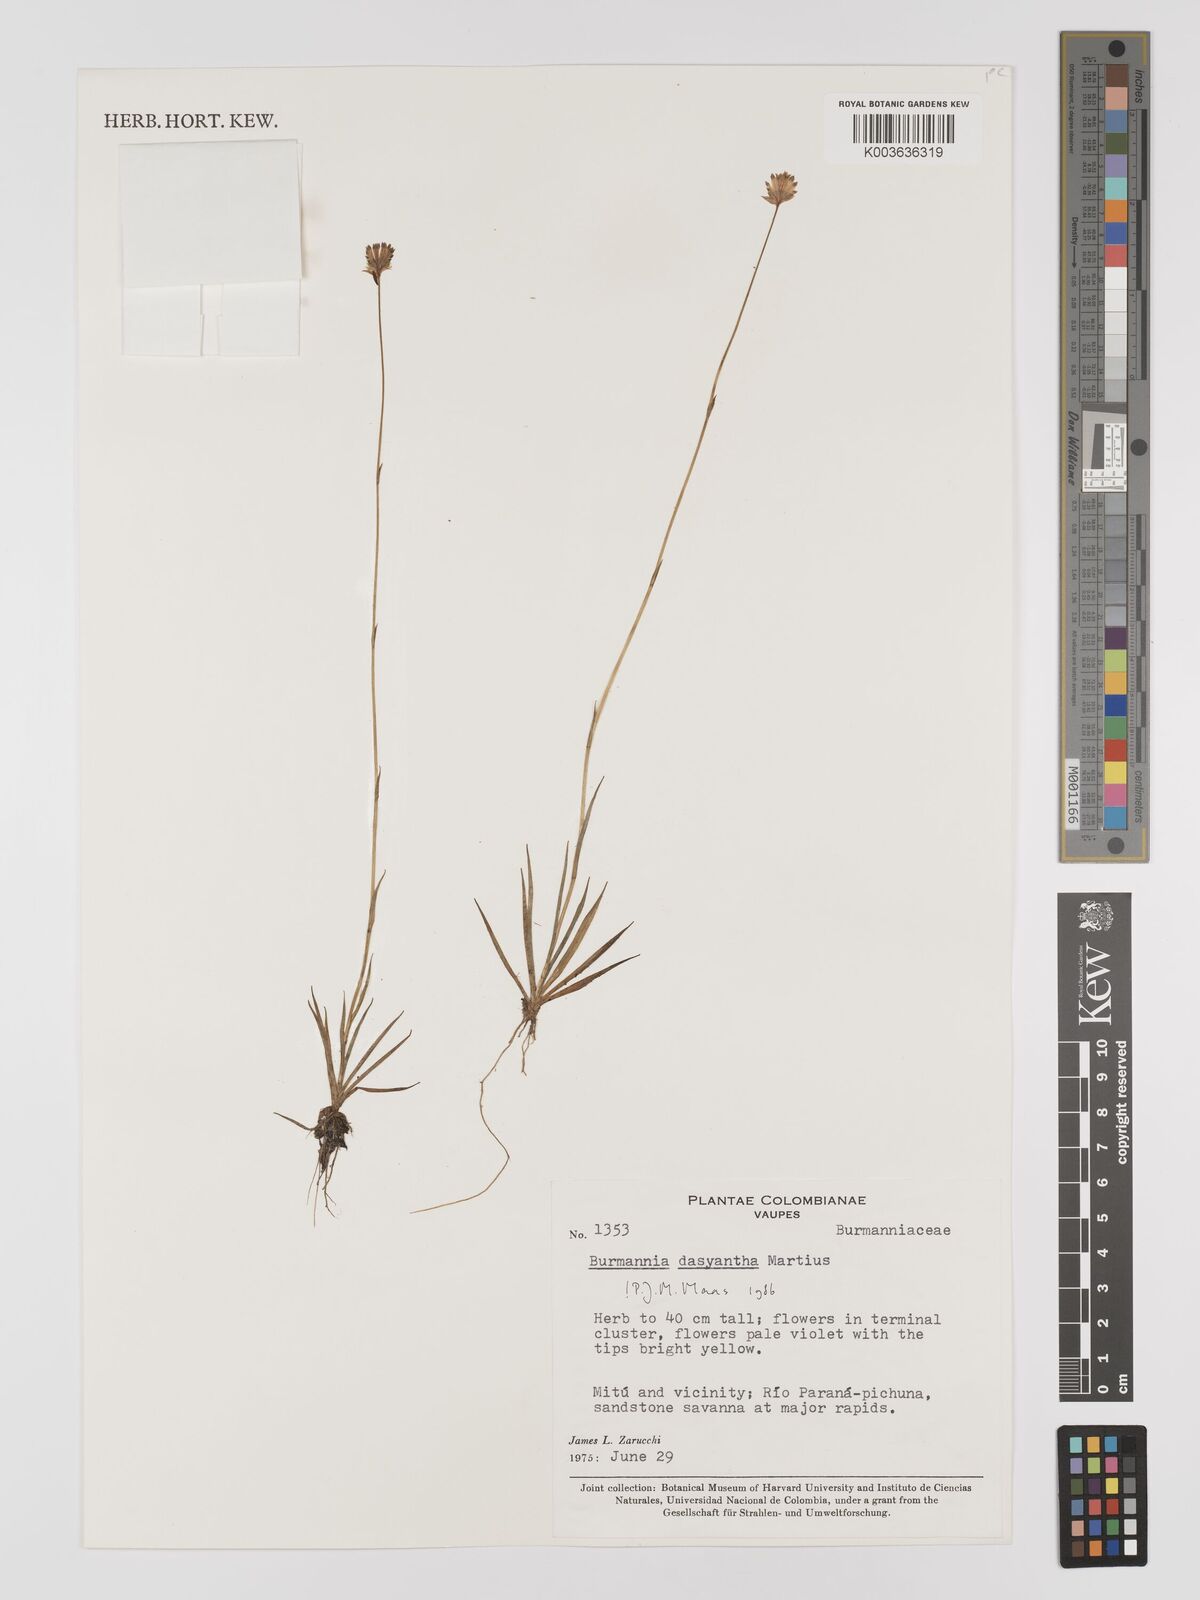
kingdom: Plantae
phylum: Tracheophyta
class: Liliopsida
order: Dioscoreales
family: Burmanniaceae
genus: Burmannia
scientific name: Burmannia dasyantha
